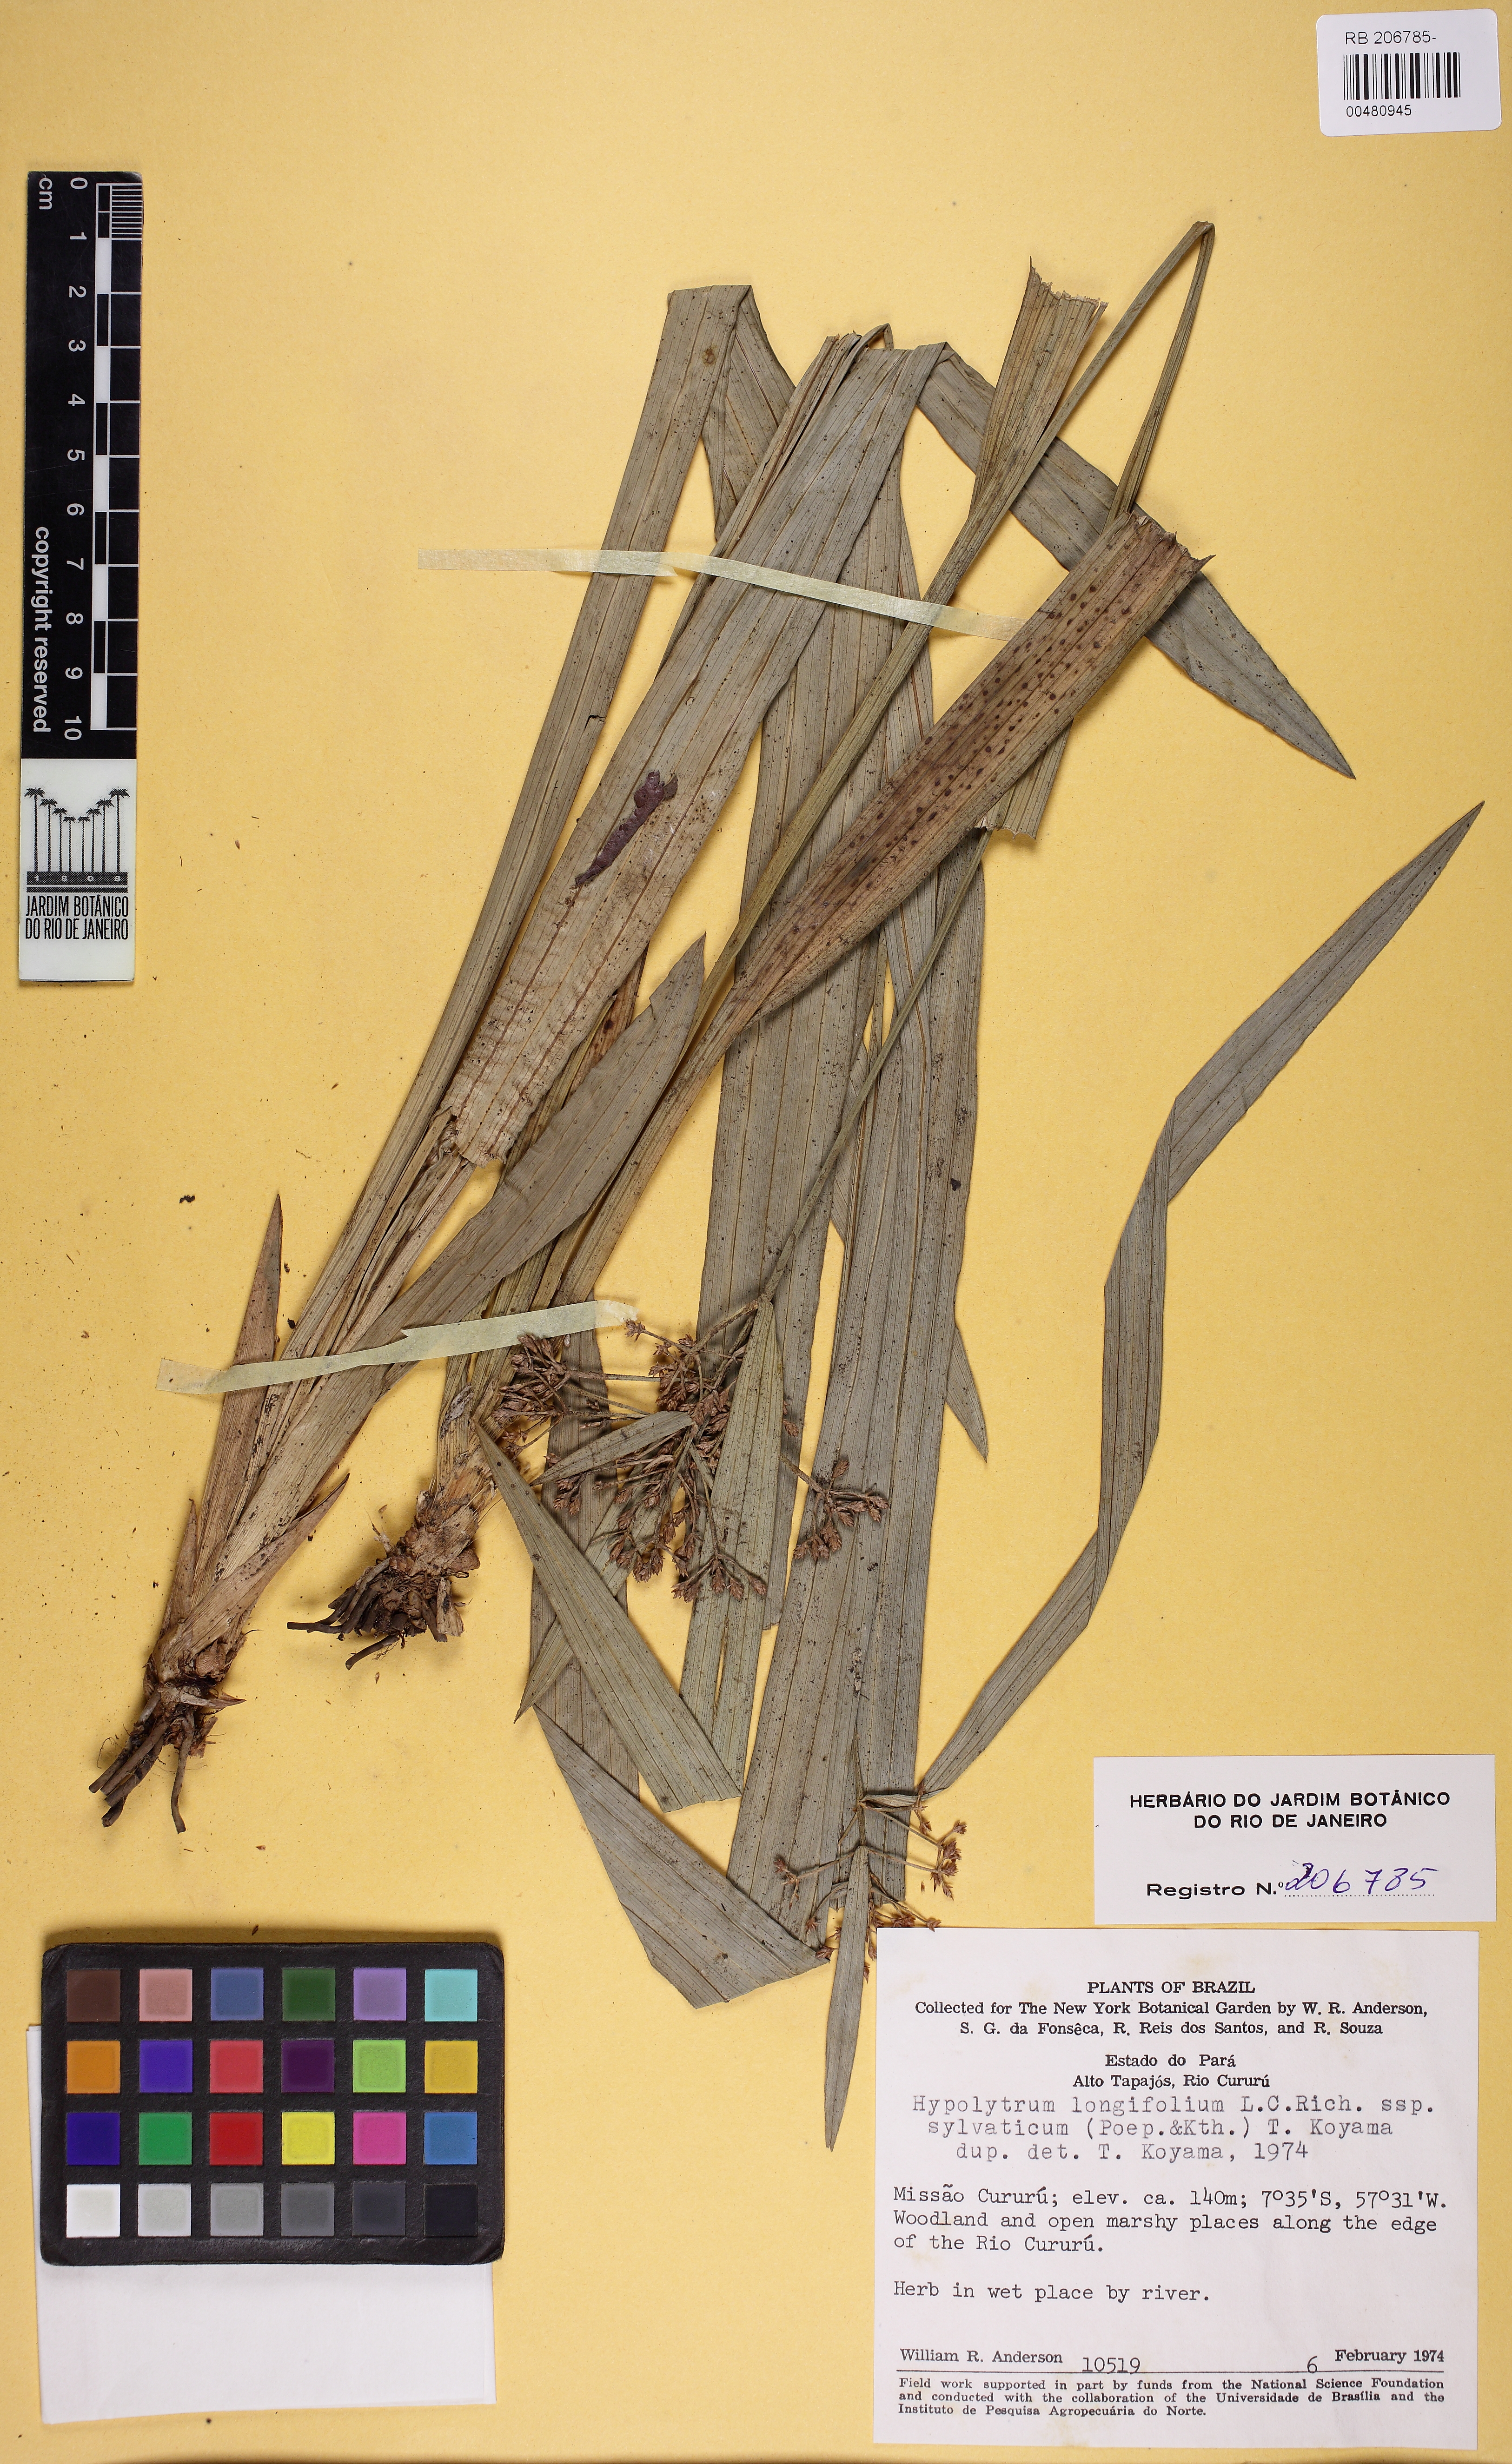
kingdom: Plantae
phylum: Tracheophyta
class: Liliopsida
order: Poales
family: Cyperaceae
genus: Hypolytrum
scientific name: Hypolytrum
